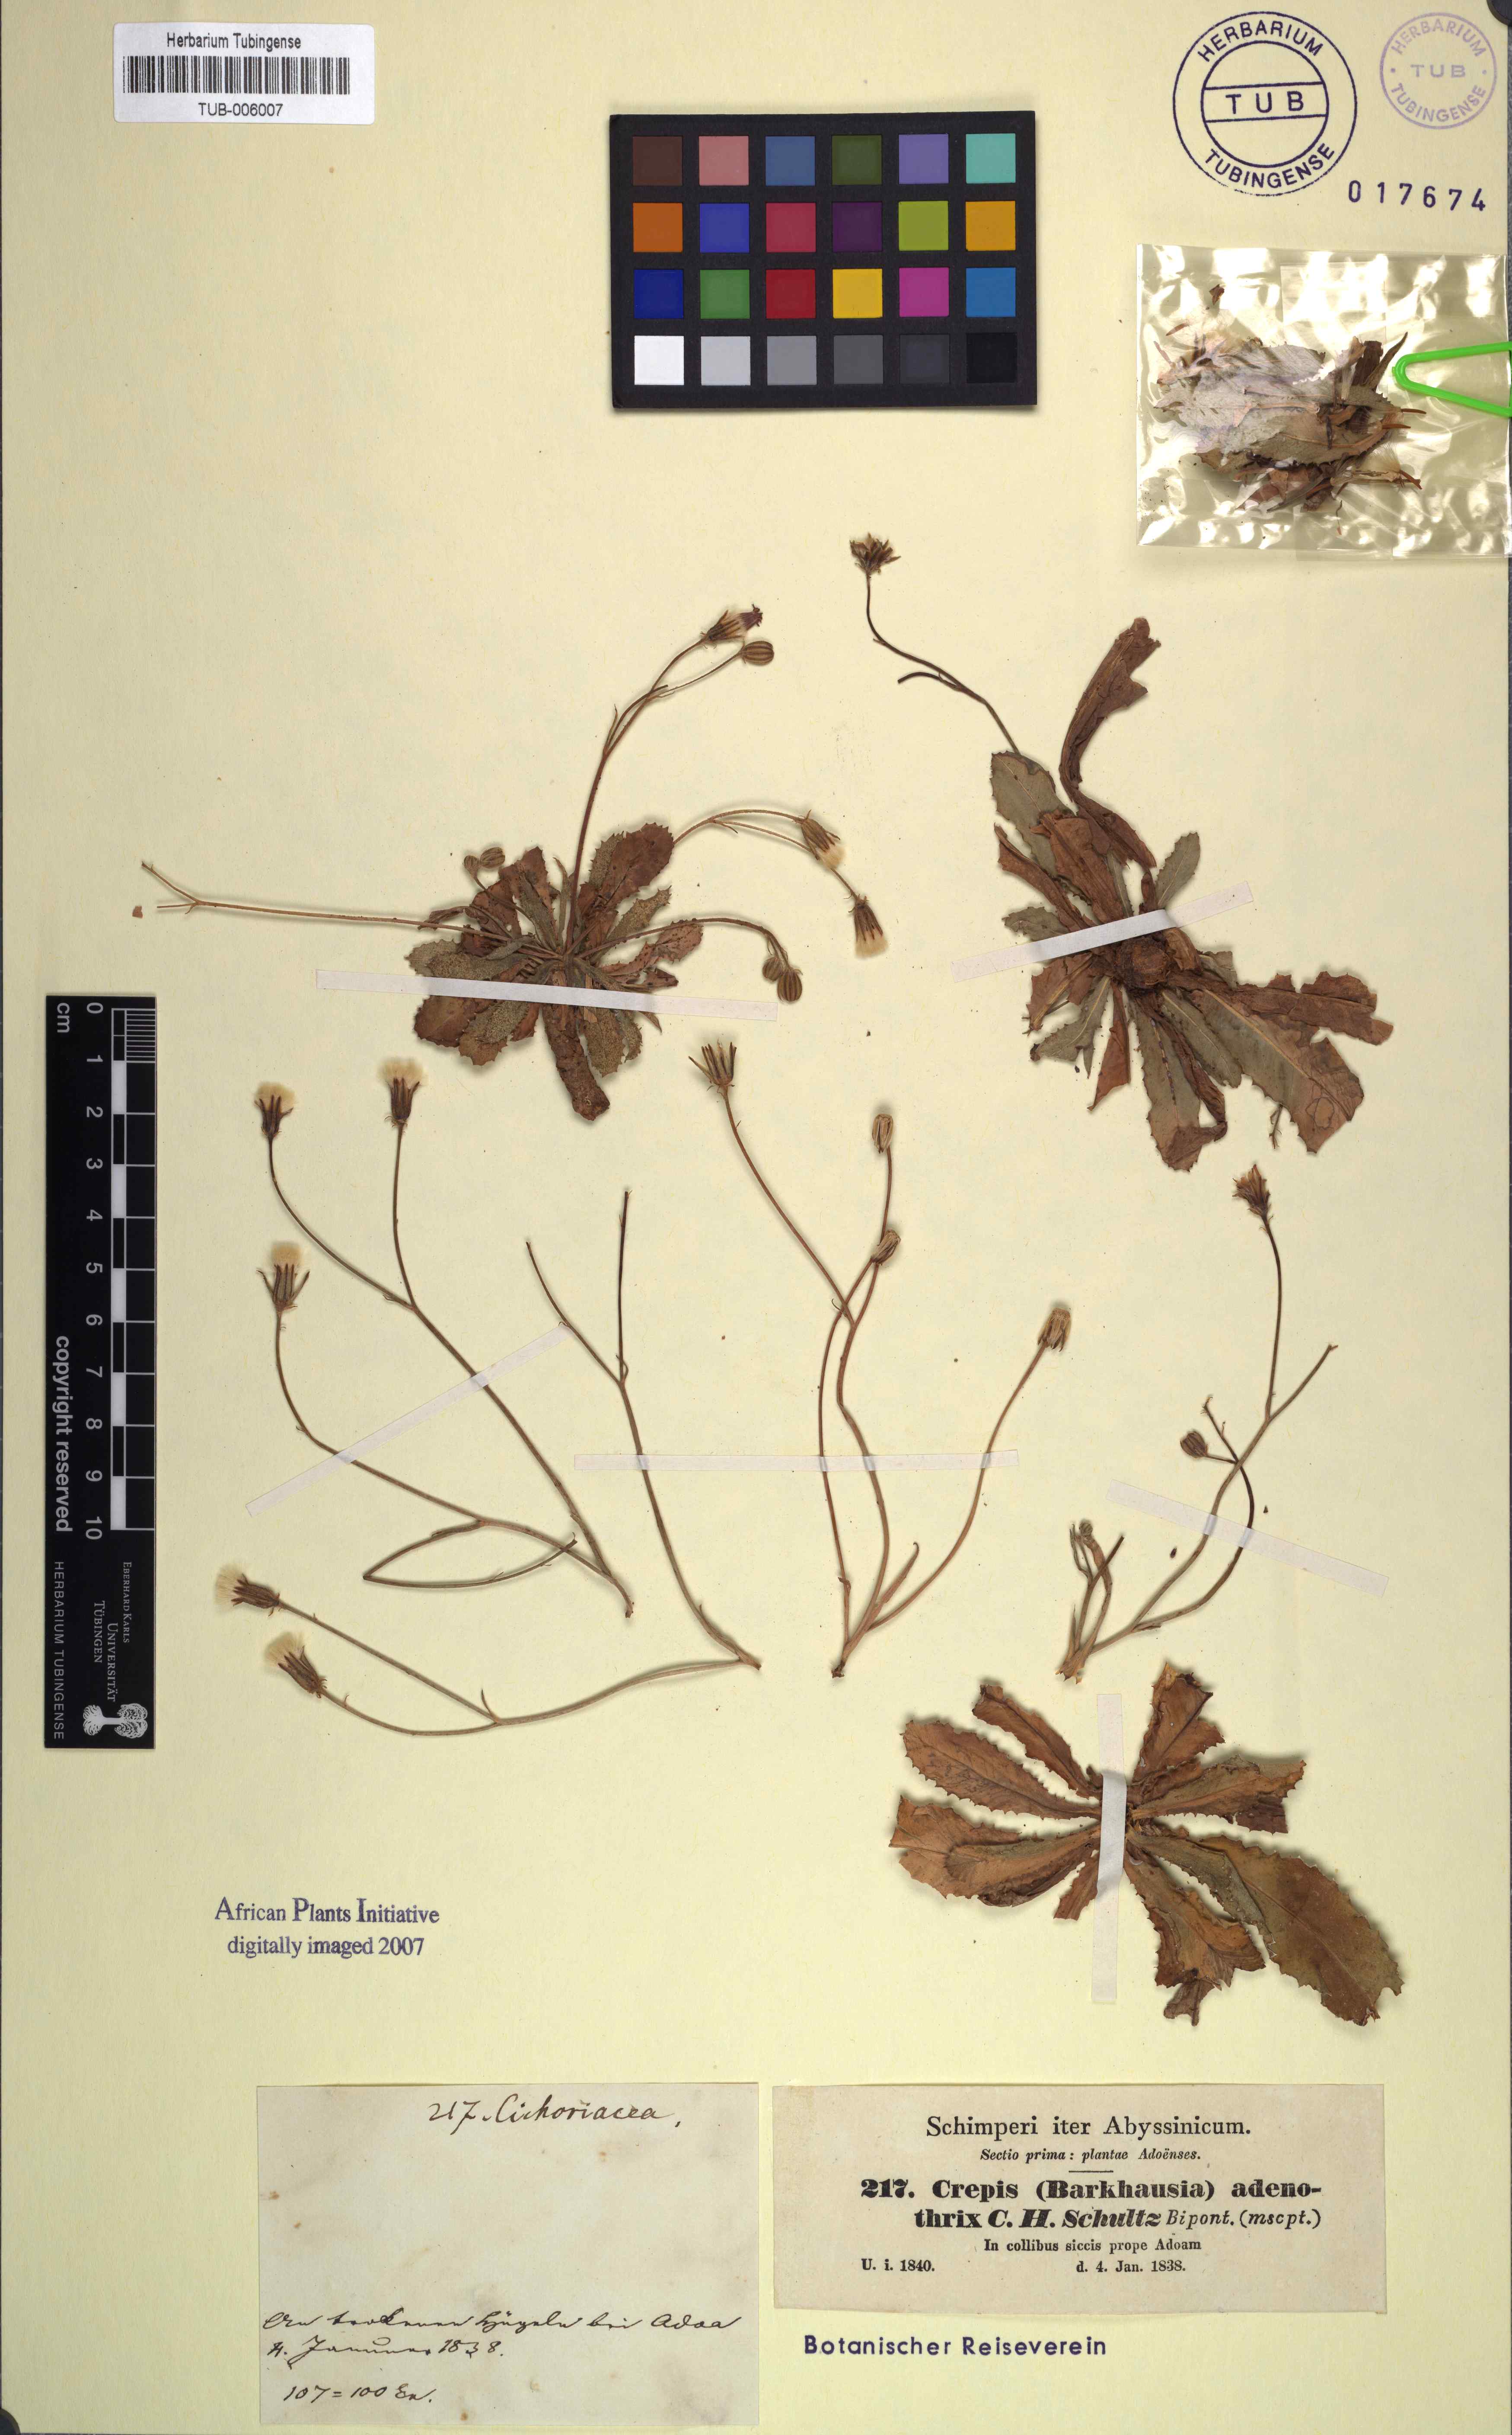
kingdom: Plantae
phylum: Tracheophyta
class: Magnoliopsida
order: Asterales
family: Asteraceae
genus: Crepis
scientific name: Crepis rueppellii
